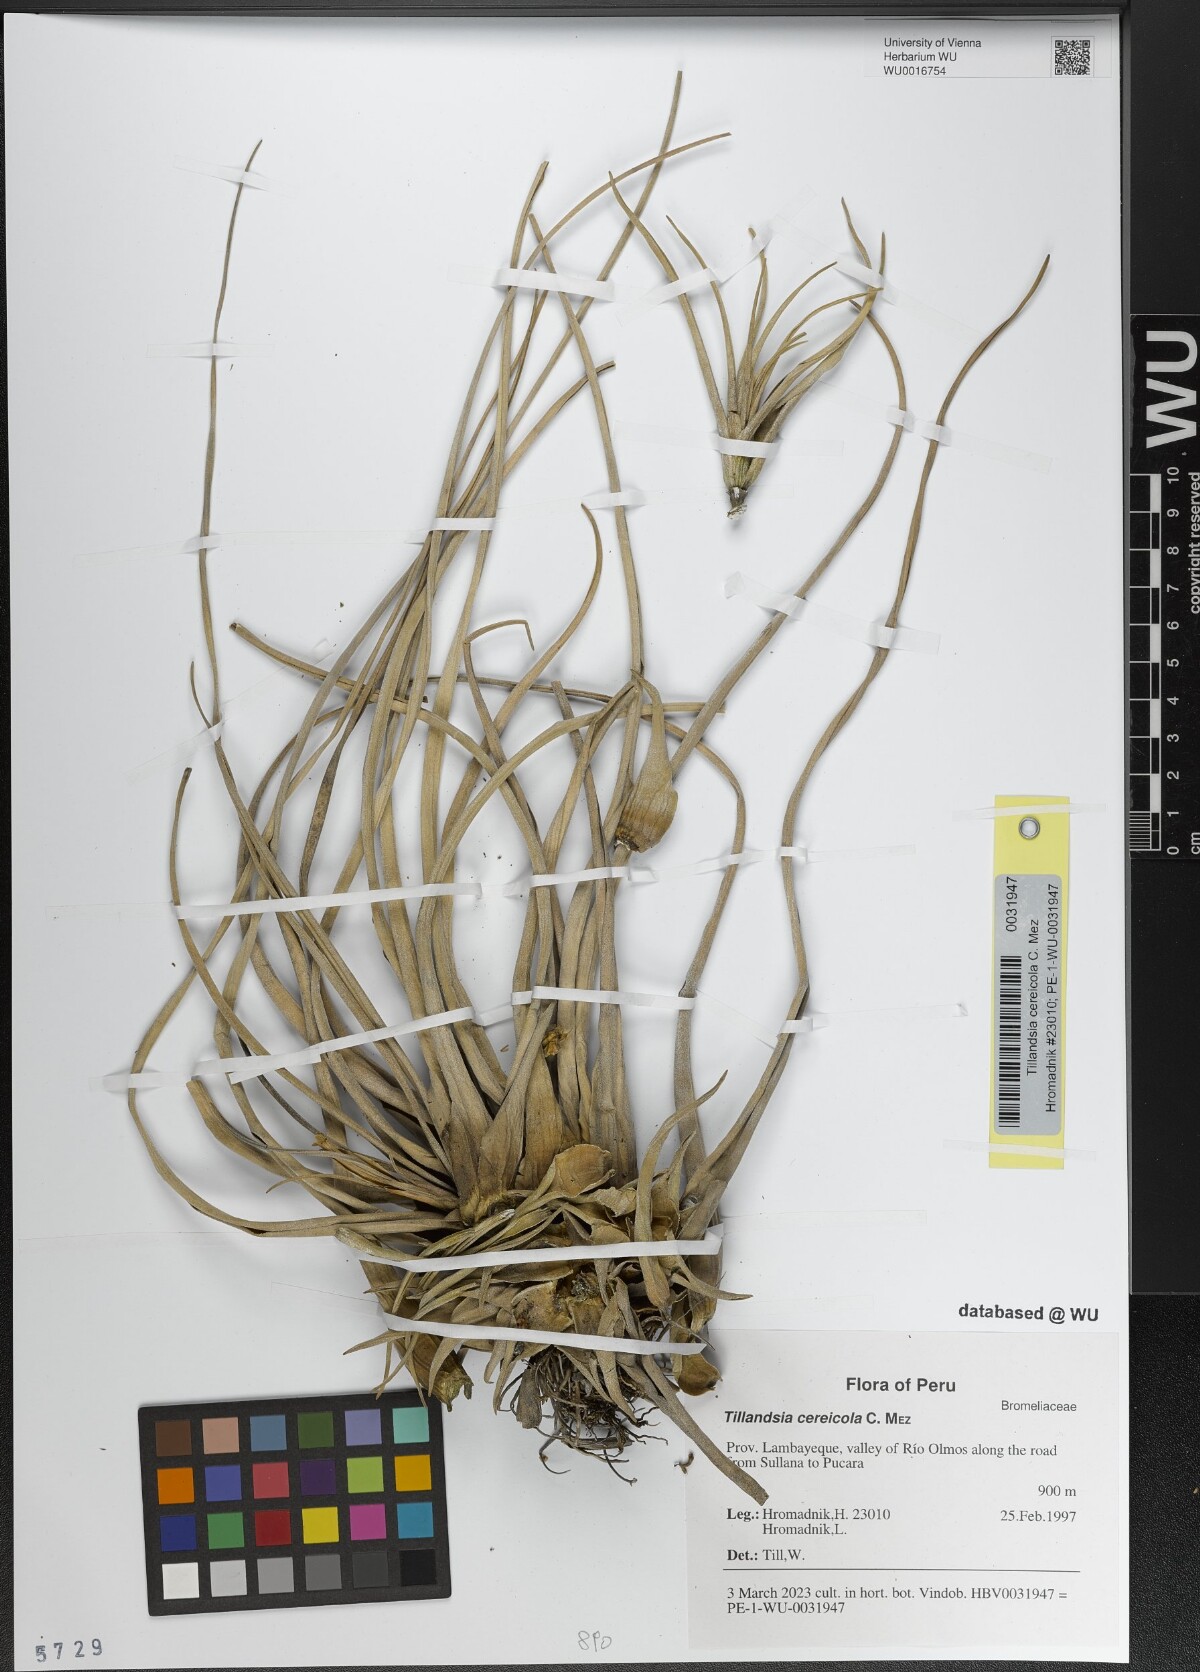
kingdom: Plantae
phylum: Tracheophyta
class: Liliopsida
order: Poales
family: Bromeliaceae
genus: Vriesea
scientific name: Vriesea cereicola
